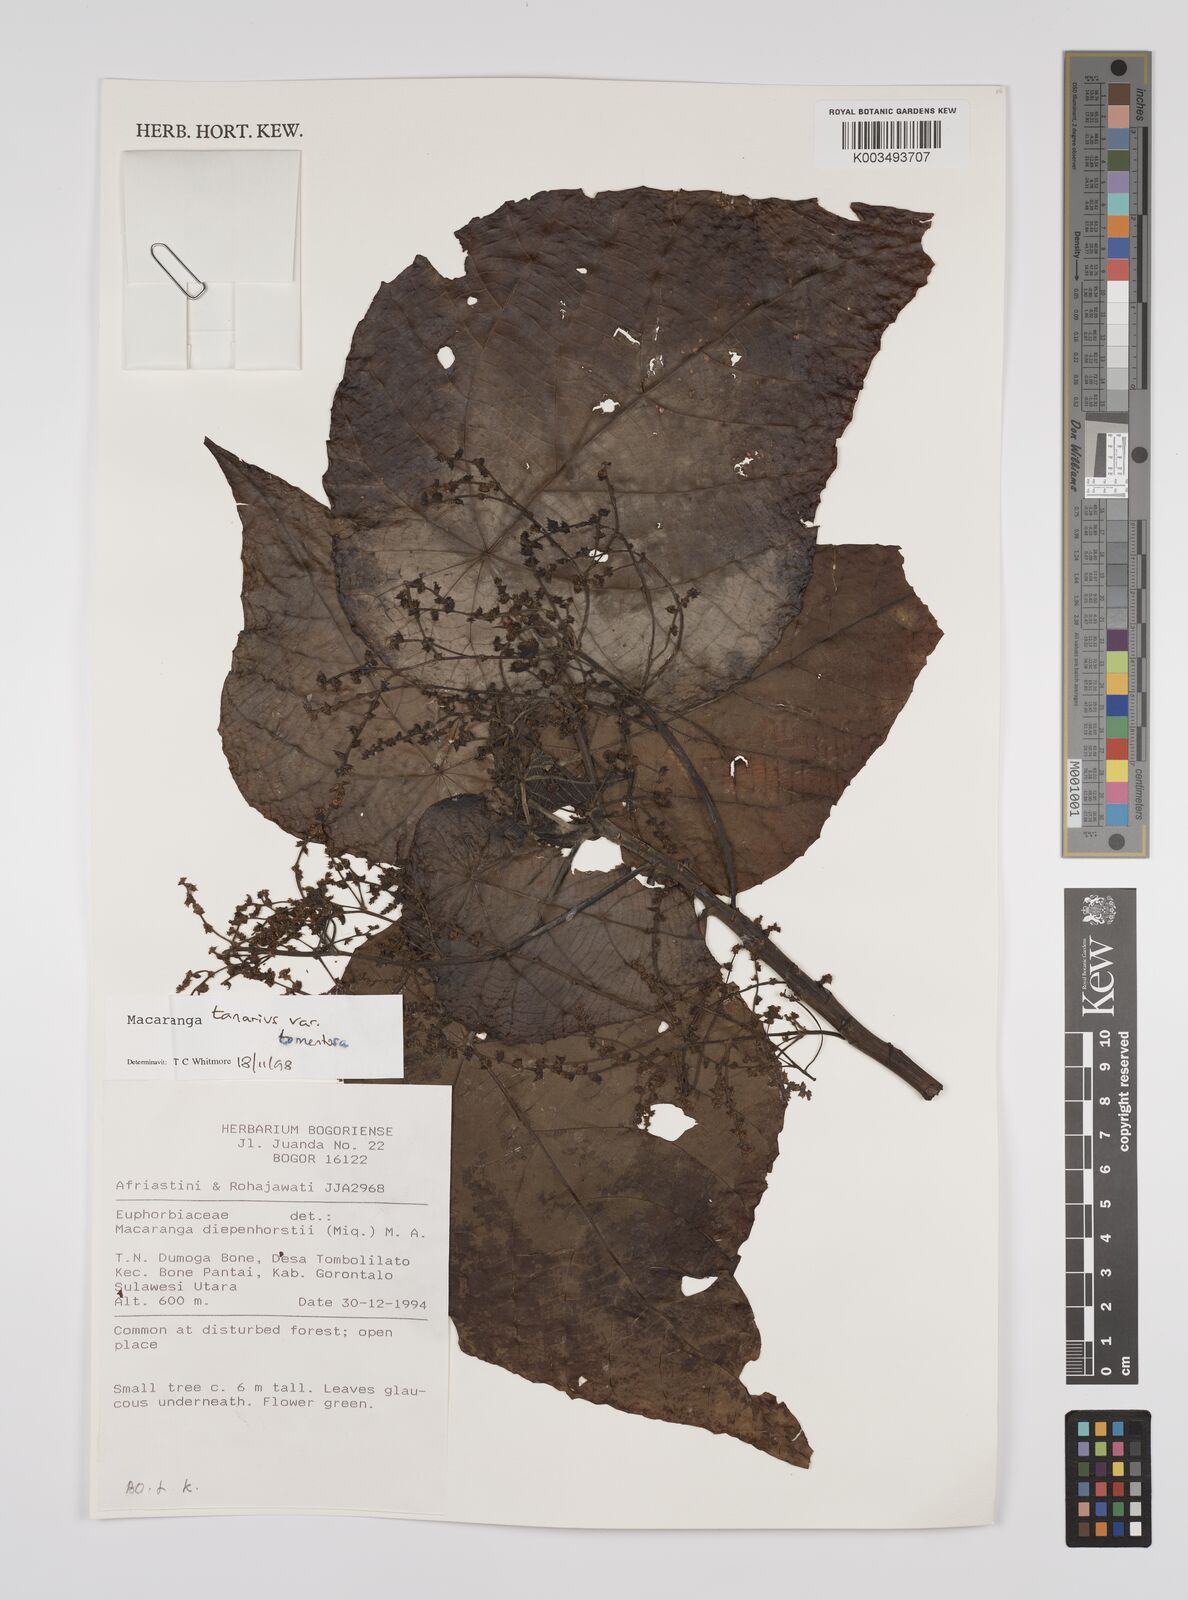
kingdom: Plantae
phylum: Tracheophyta
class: Magnoliopsida
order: Malpighiales
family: Euphorbiaceae
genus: Macaranga
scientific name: Macaranga tanarius
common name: Parasol leaf tree
